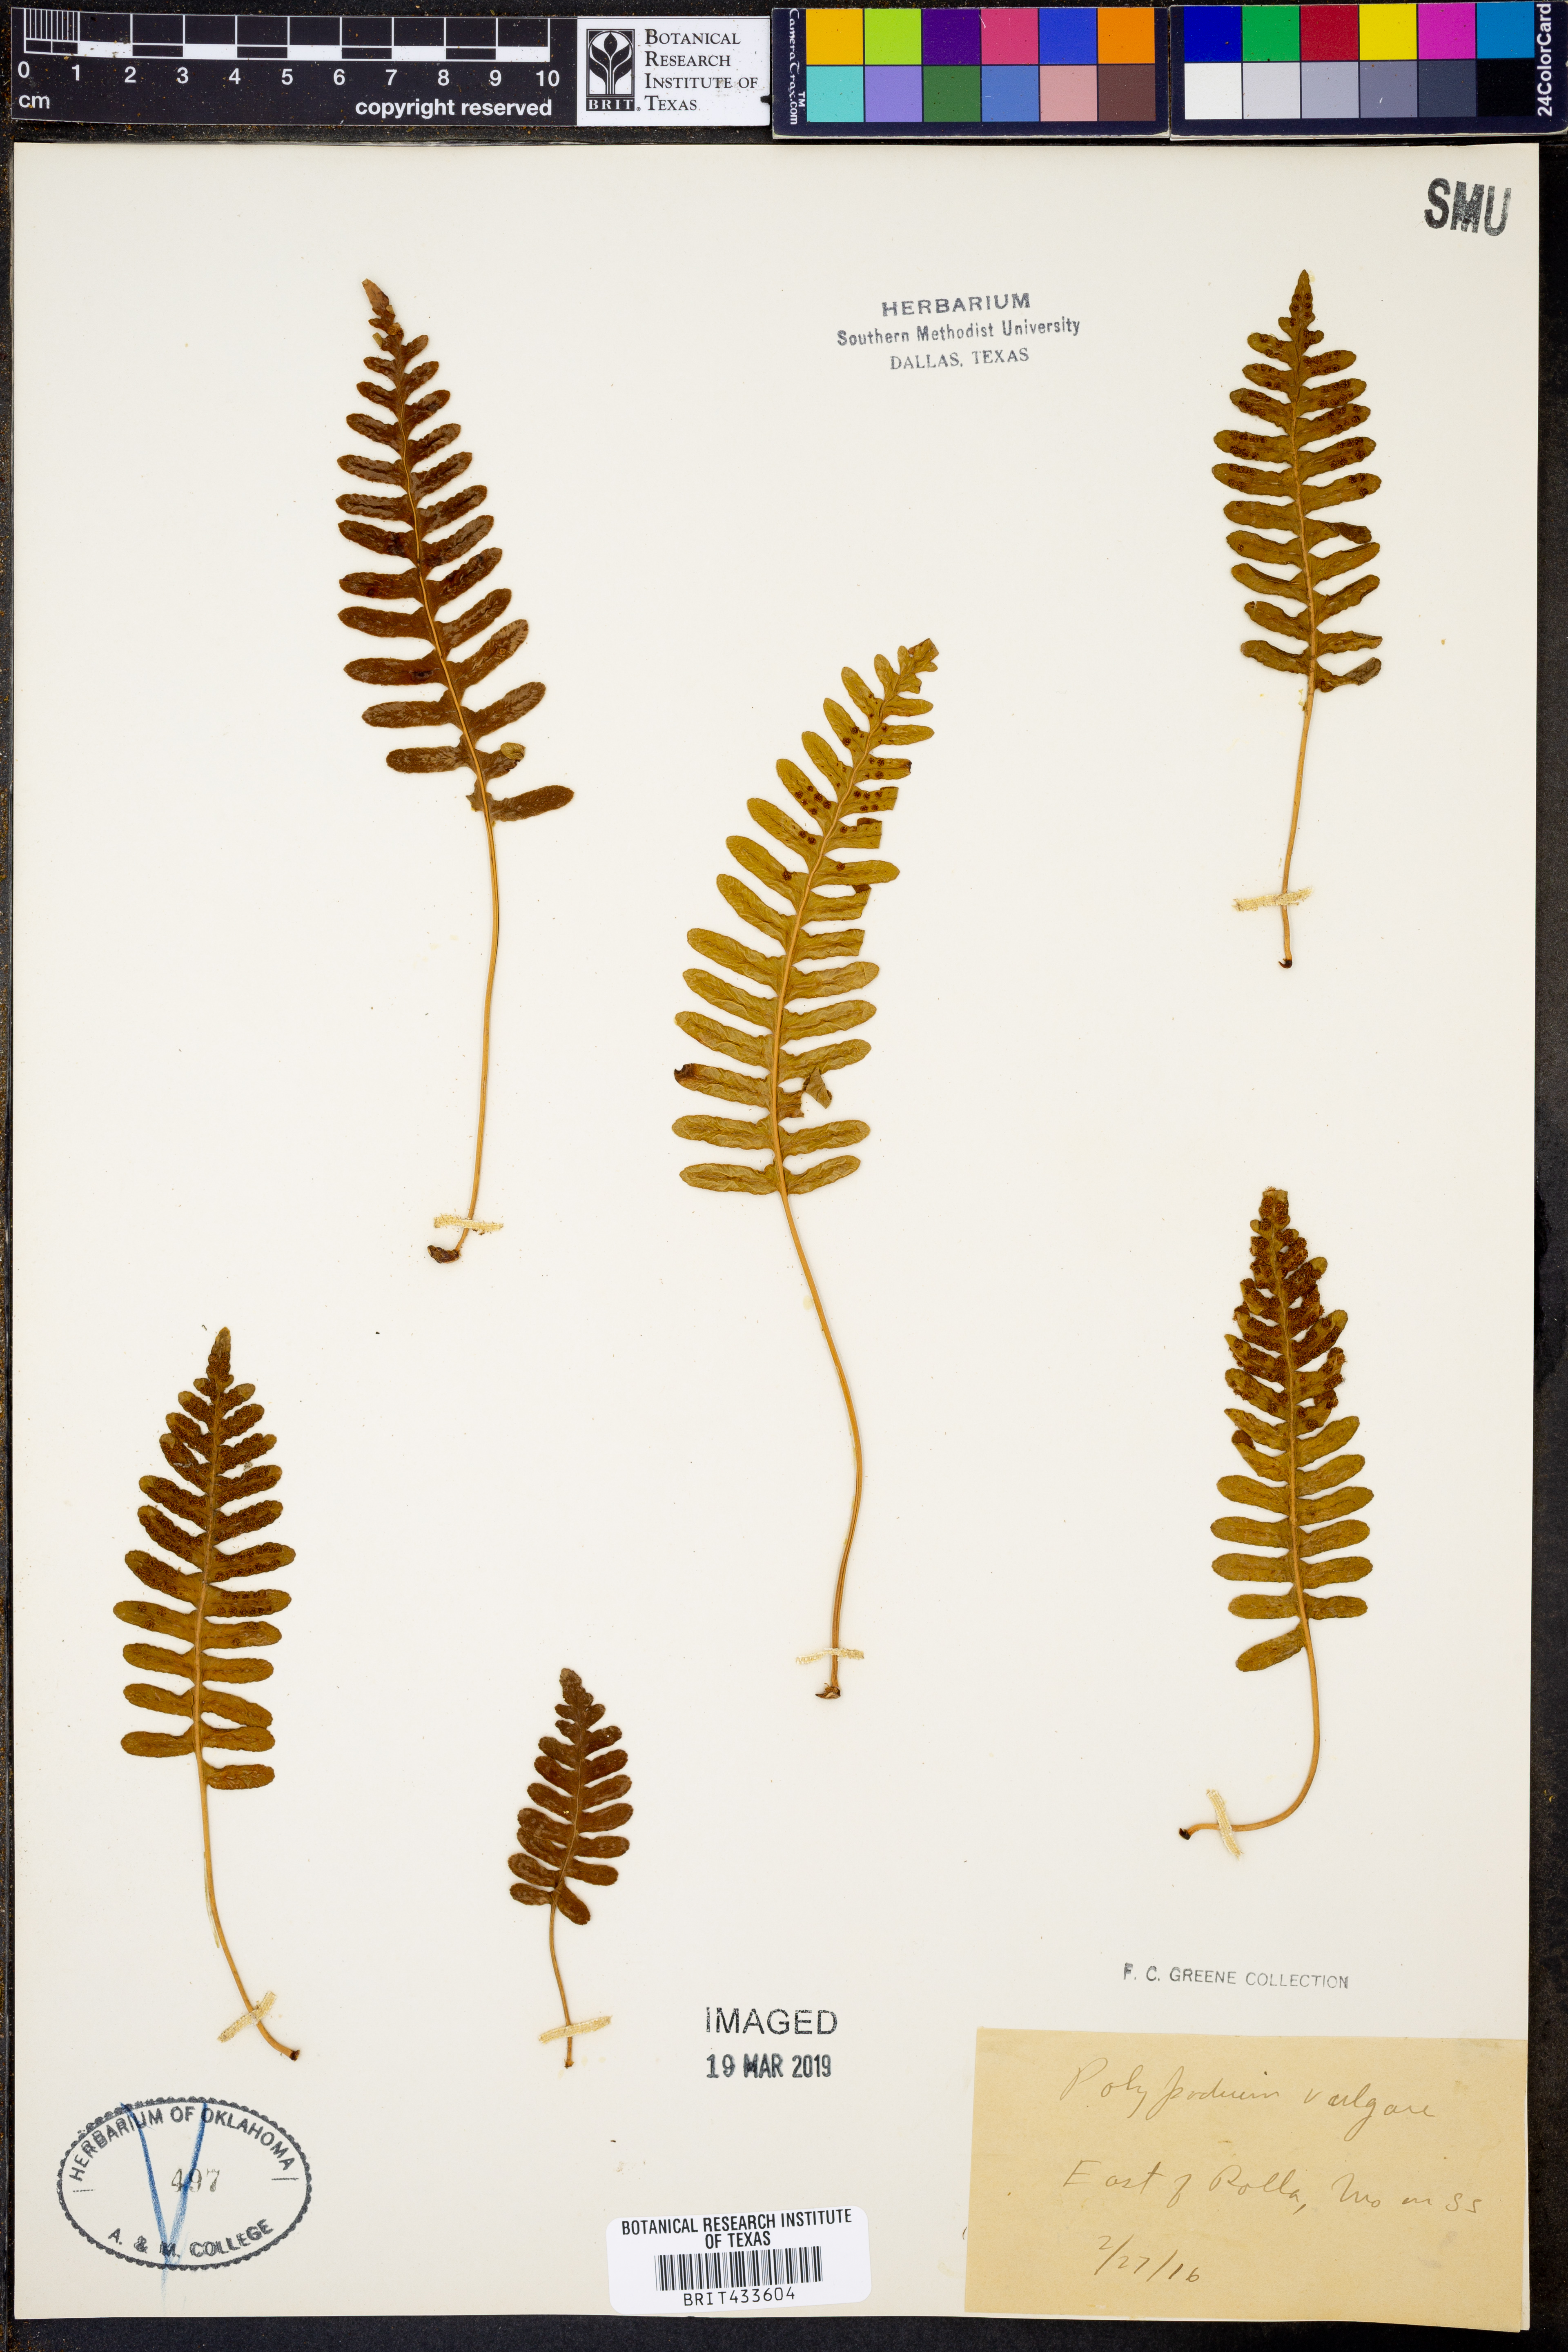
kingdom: Plantae
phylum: Tracheophyta
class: Polypodiopsida
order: Polypodiales
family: Polypodiaceae
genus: Polypodium
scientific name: Polypodium vulgare
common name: Common polypody
